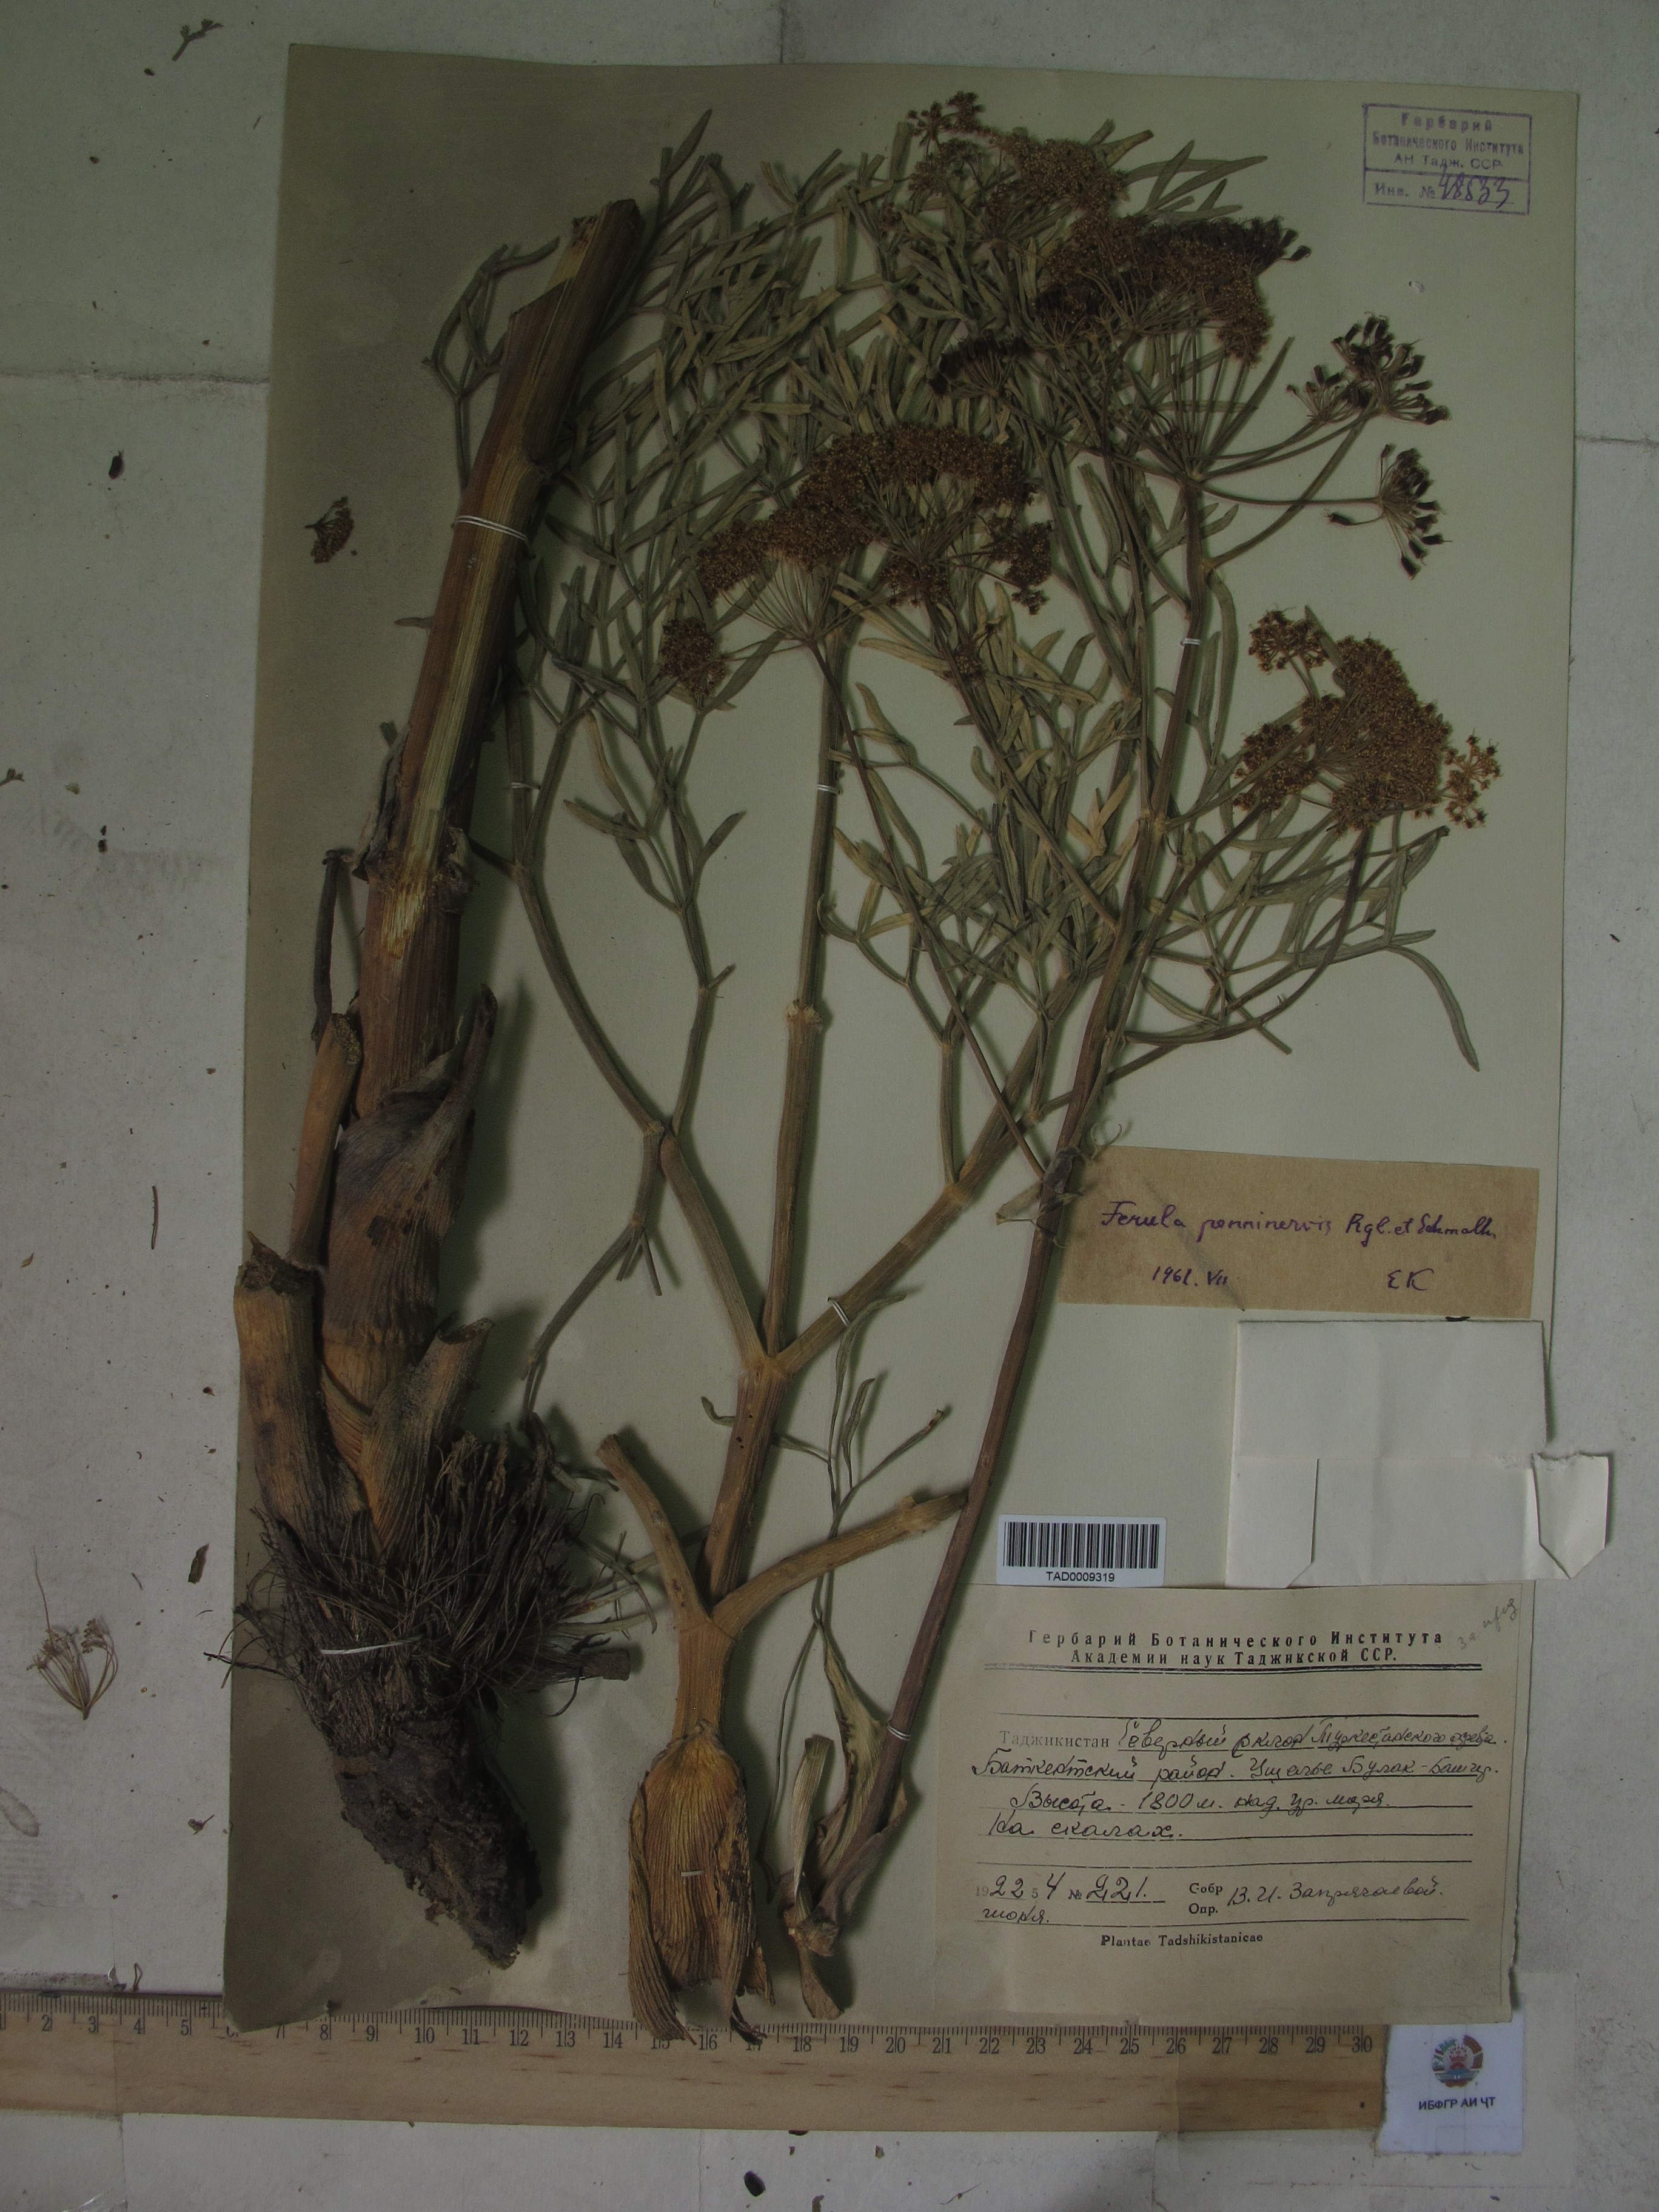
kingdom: Plantae
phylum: Tracheophyta
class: Magnoliopsida
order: Apiales
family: Apiaceae
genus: Ferula
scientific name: Ferula penninervis
